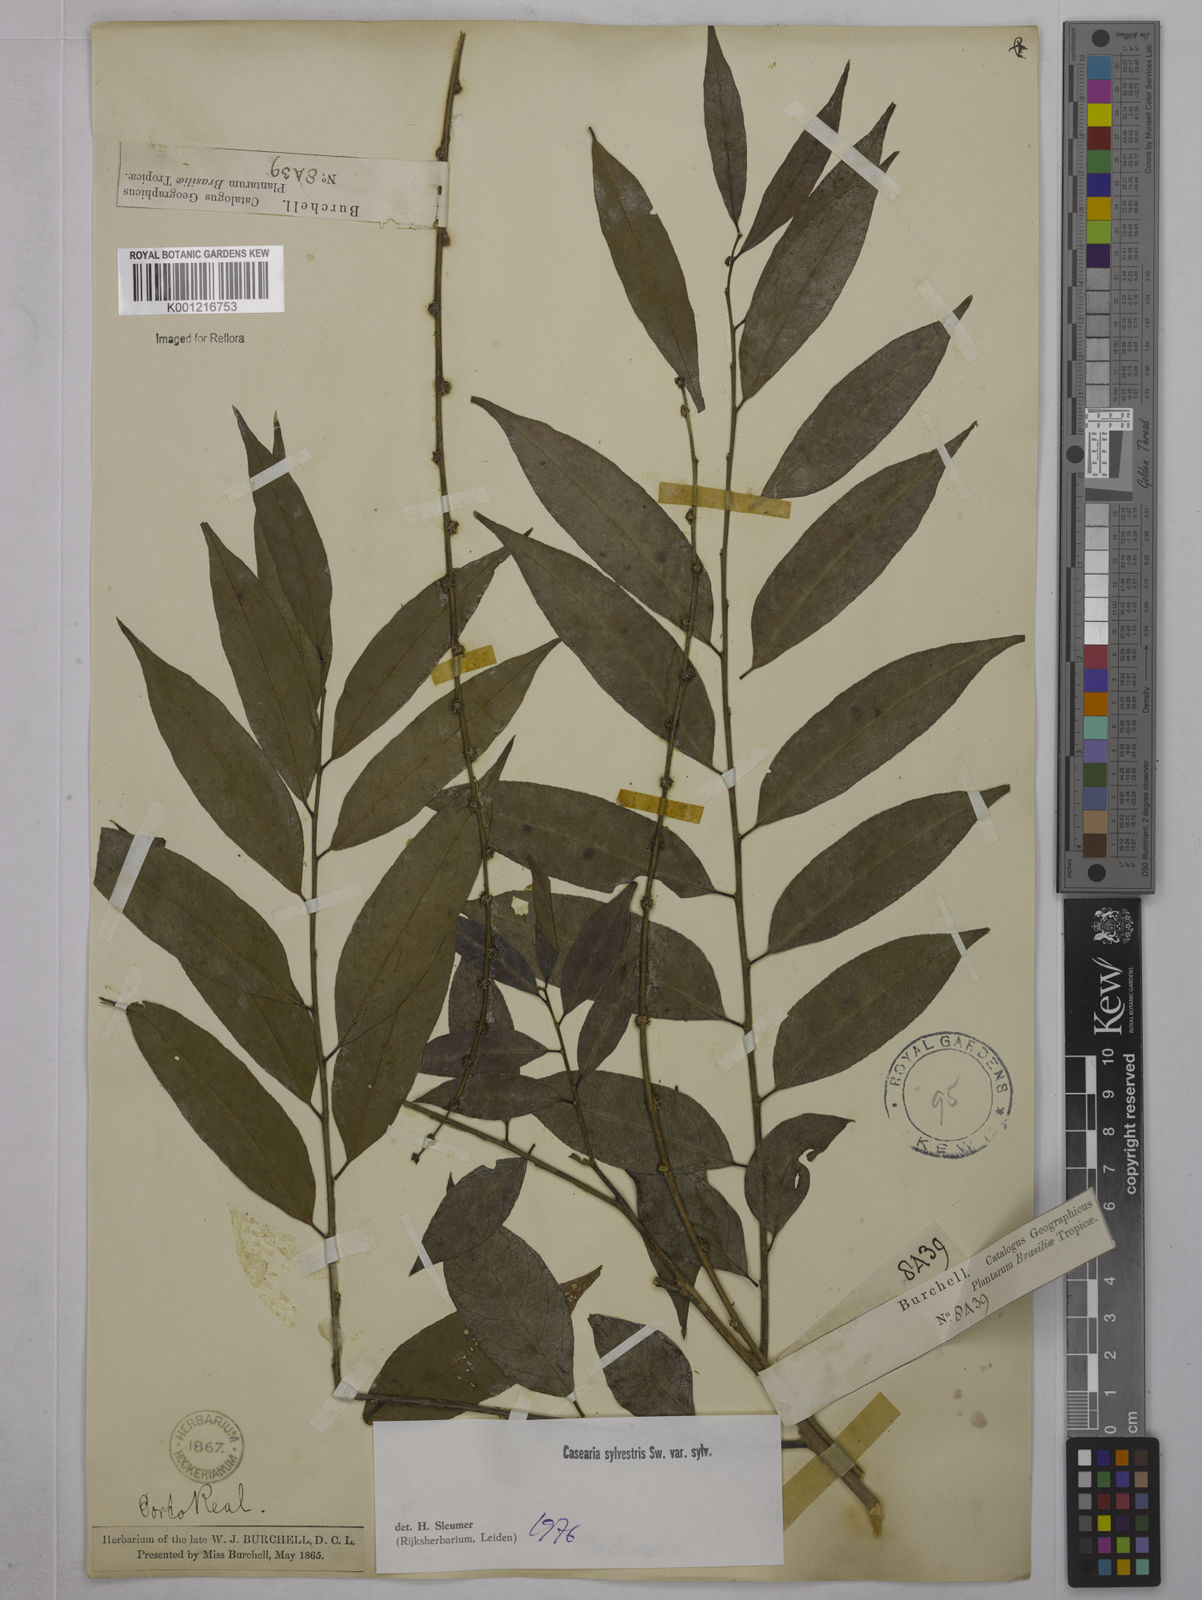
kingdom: Plantae
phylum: Tracheophyta
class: Magnoliopsida
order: Malpighiales
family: Salicaceae
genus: Casearia
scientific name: Casearia sylvestris
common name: Wild sage
